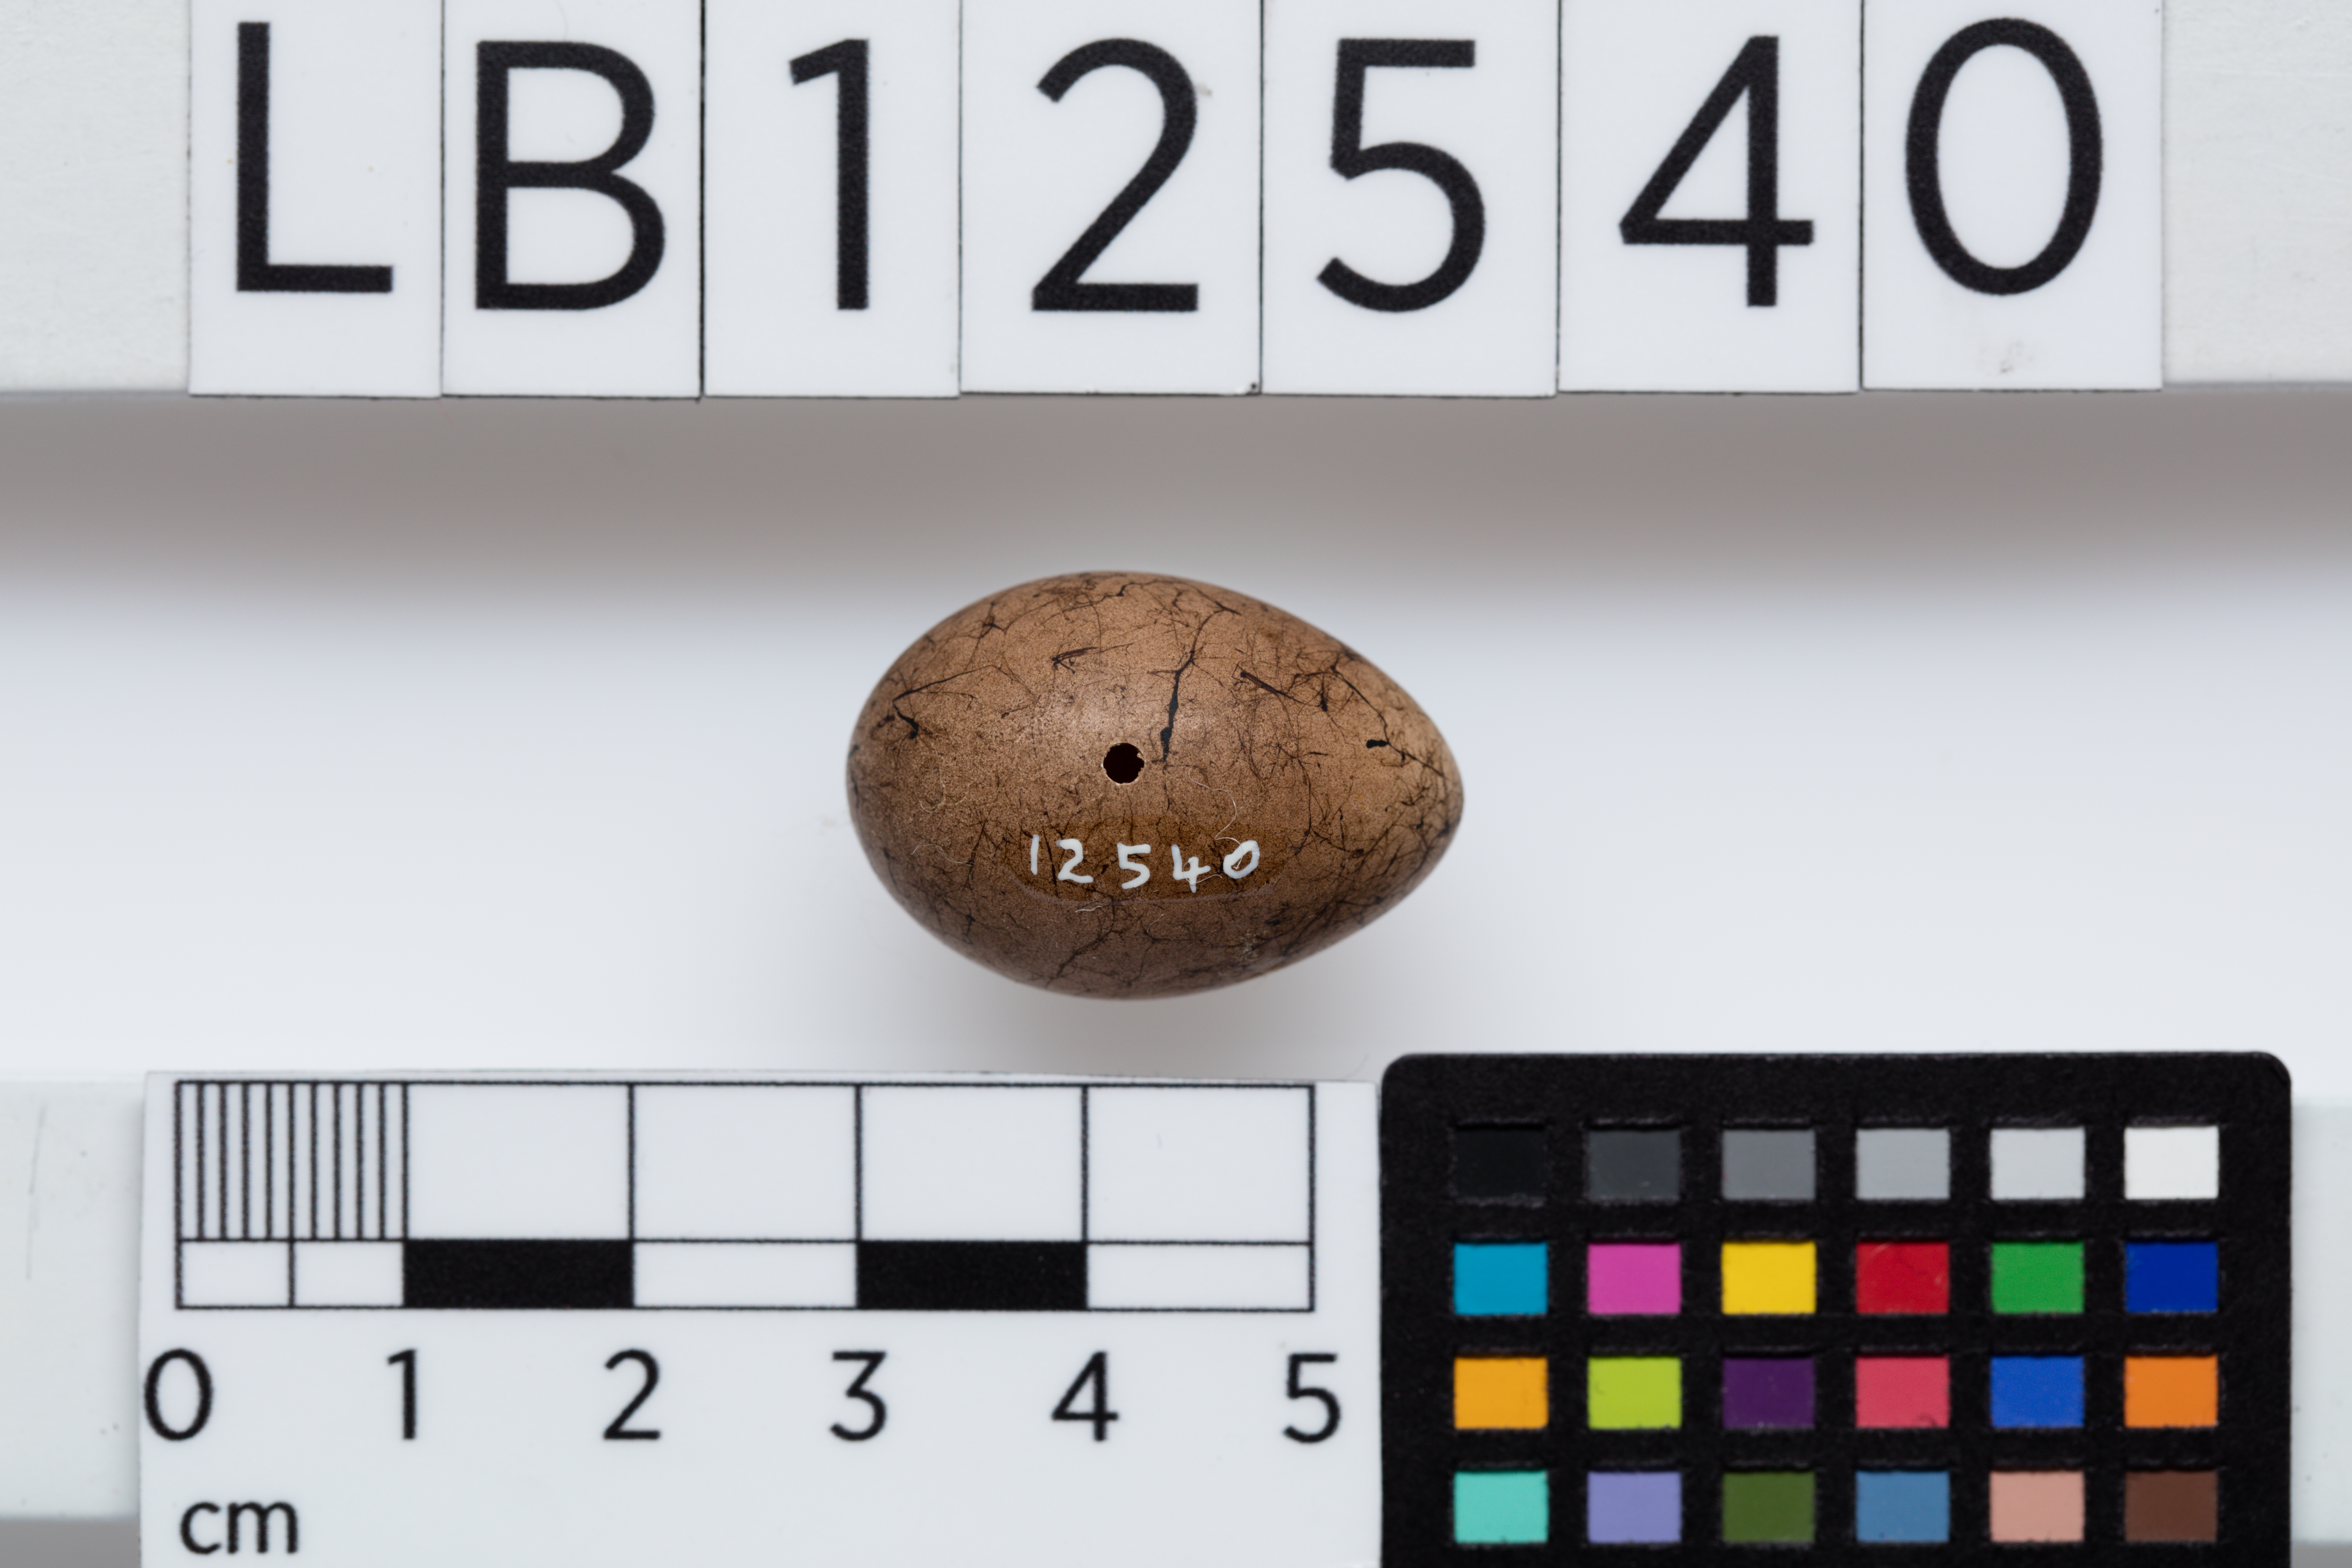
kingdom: Animalia
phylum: Chordata
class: Aves
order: Passeriformes
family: Pomatostomidae
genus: Pomatostomus
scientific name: Pomatostomus temporalis
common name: Grey-crowned babbler
